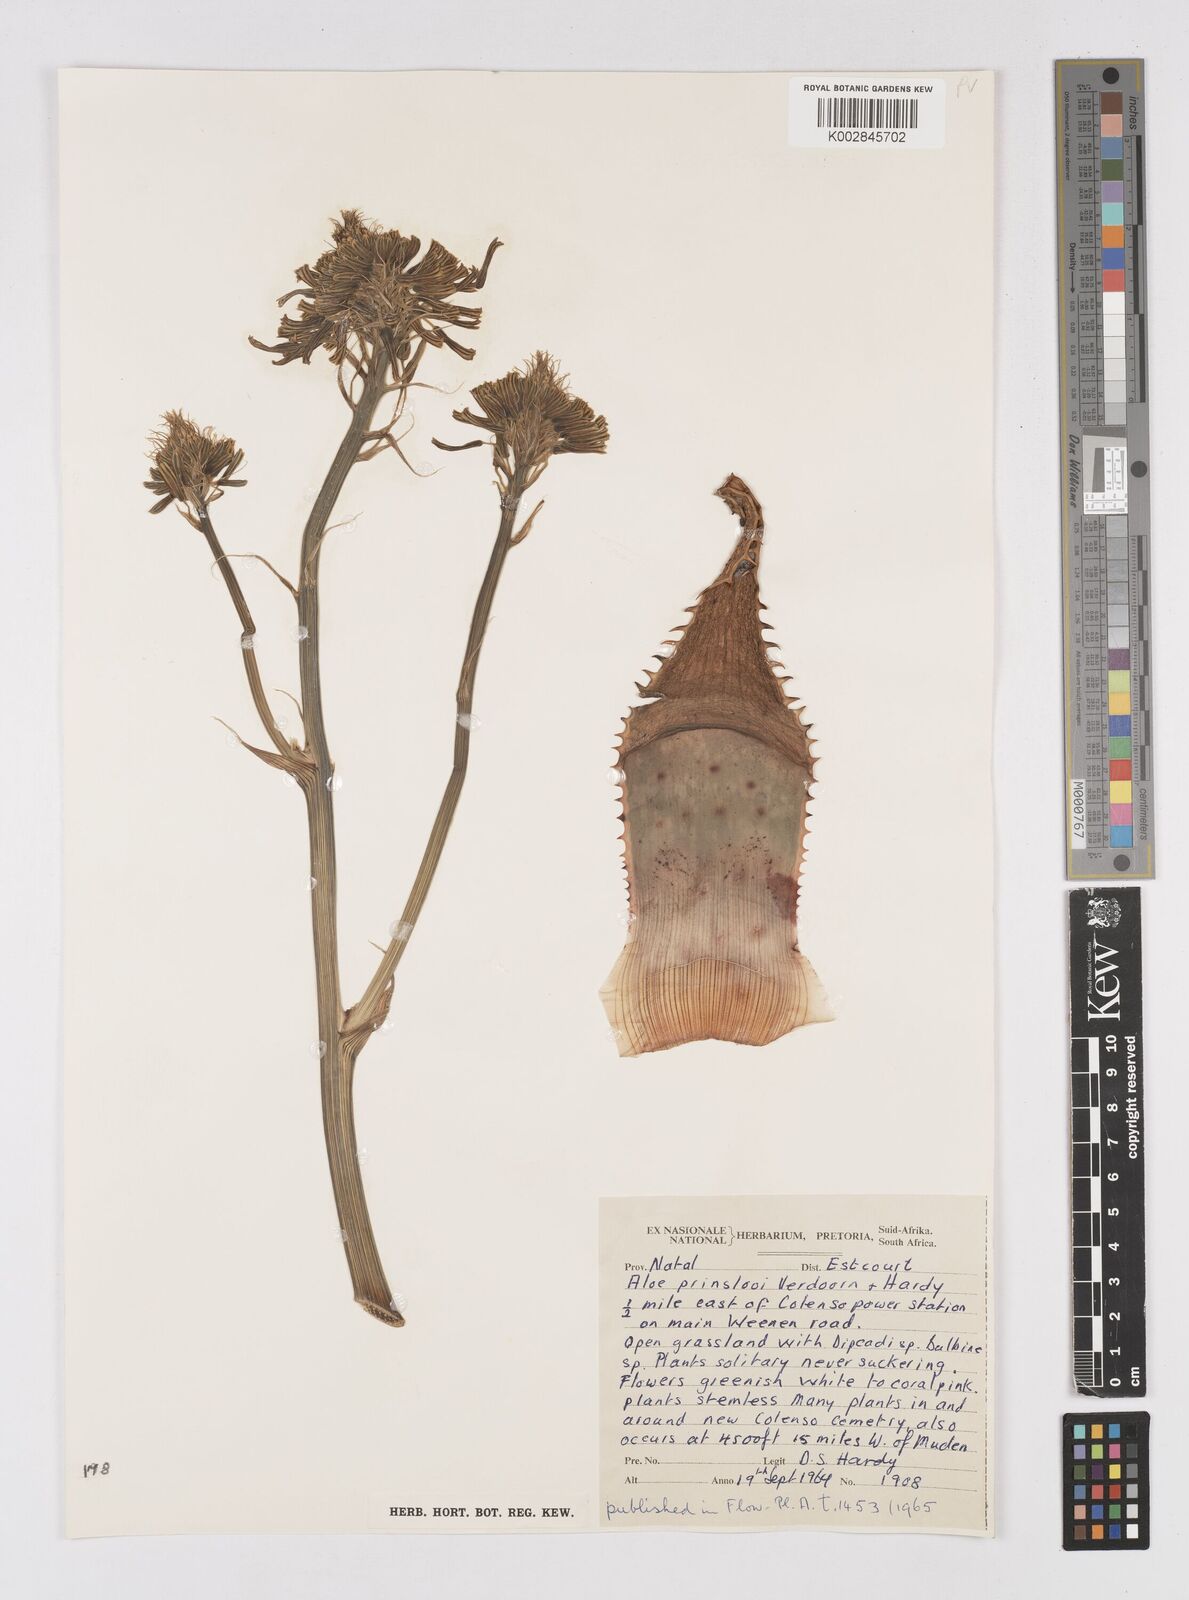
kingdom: Plantae
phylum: Tracheophyta
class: Liliopsida
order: Asparagales
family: Asphodelaceae
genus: Aloe
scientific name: Aloe prinslooi
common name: Spotted aloe
